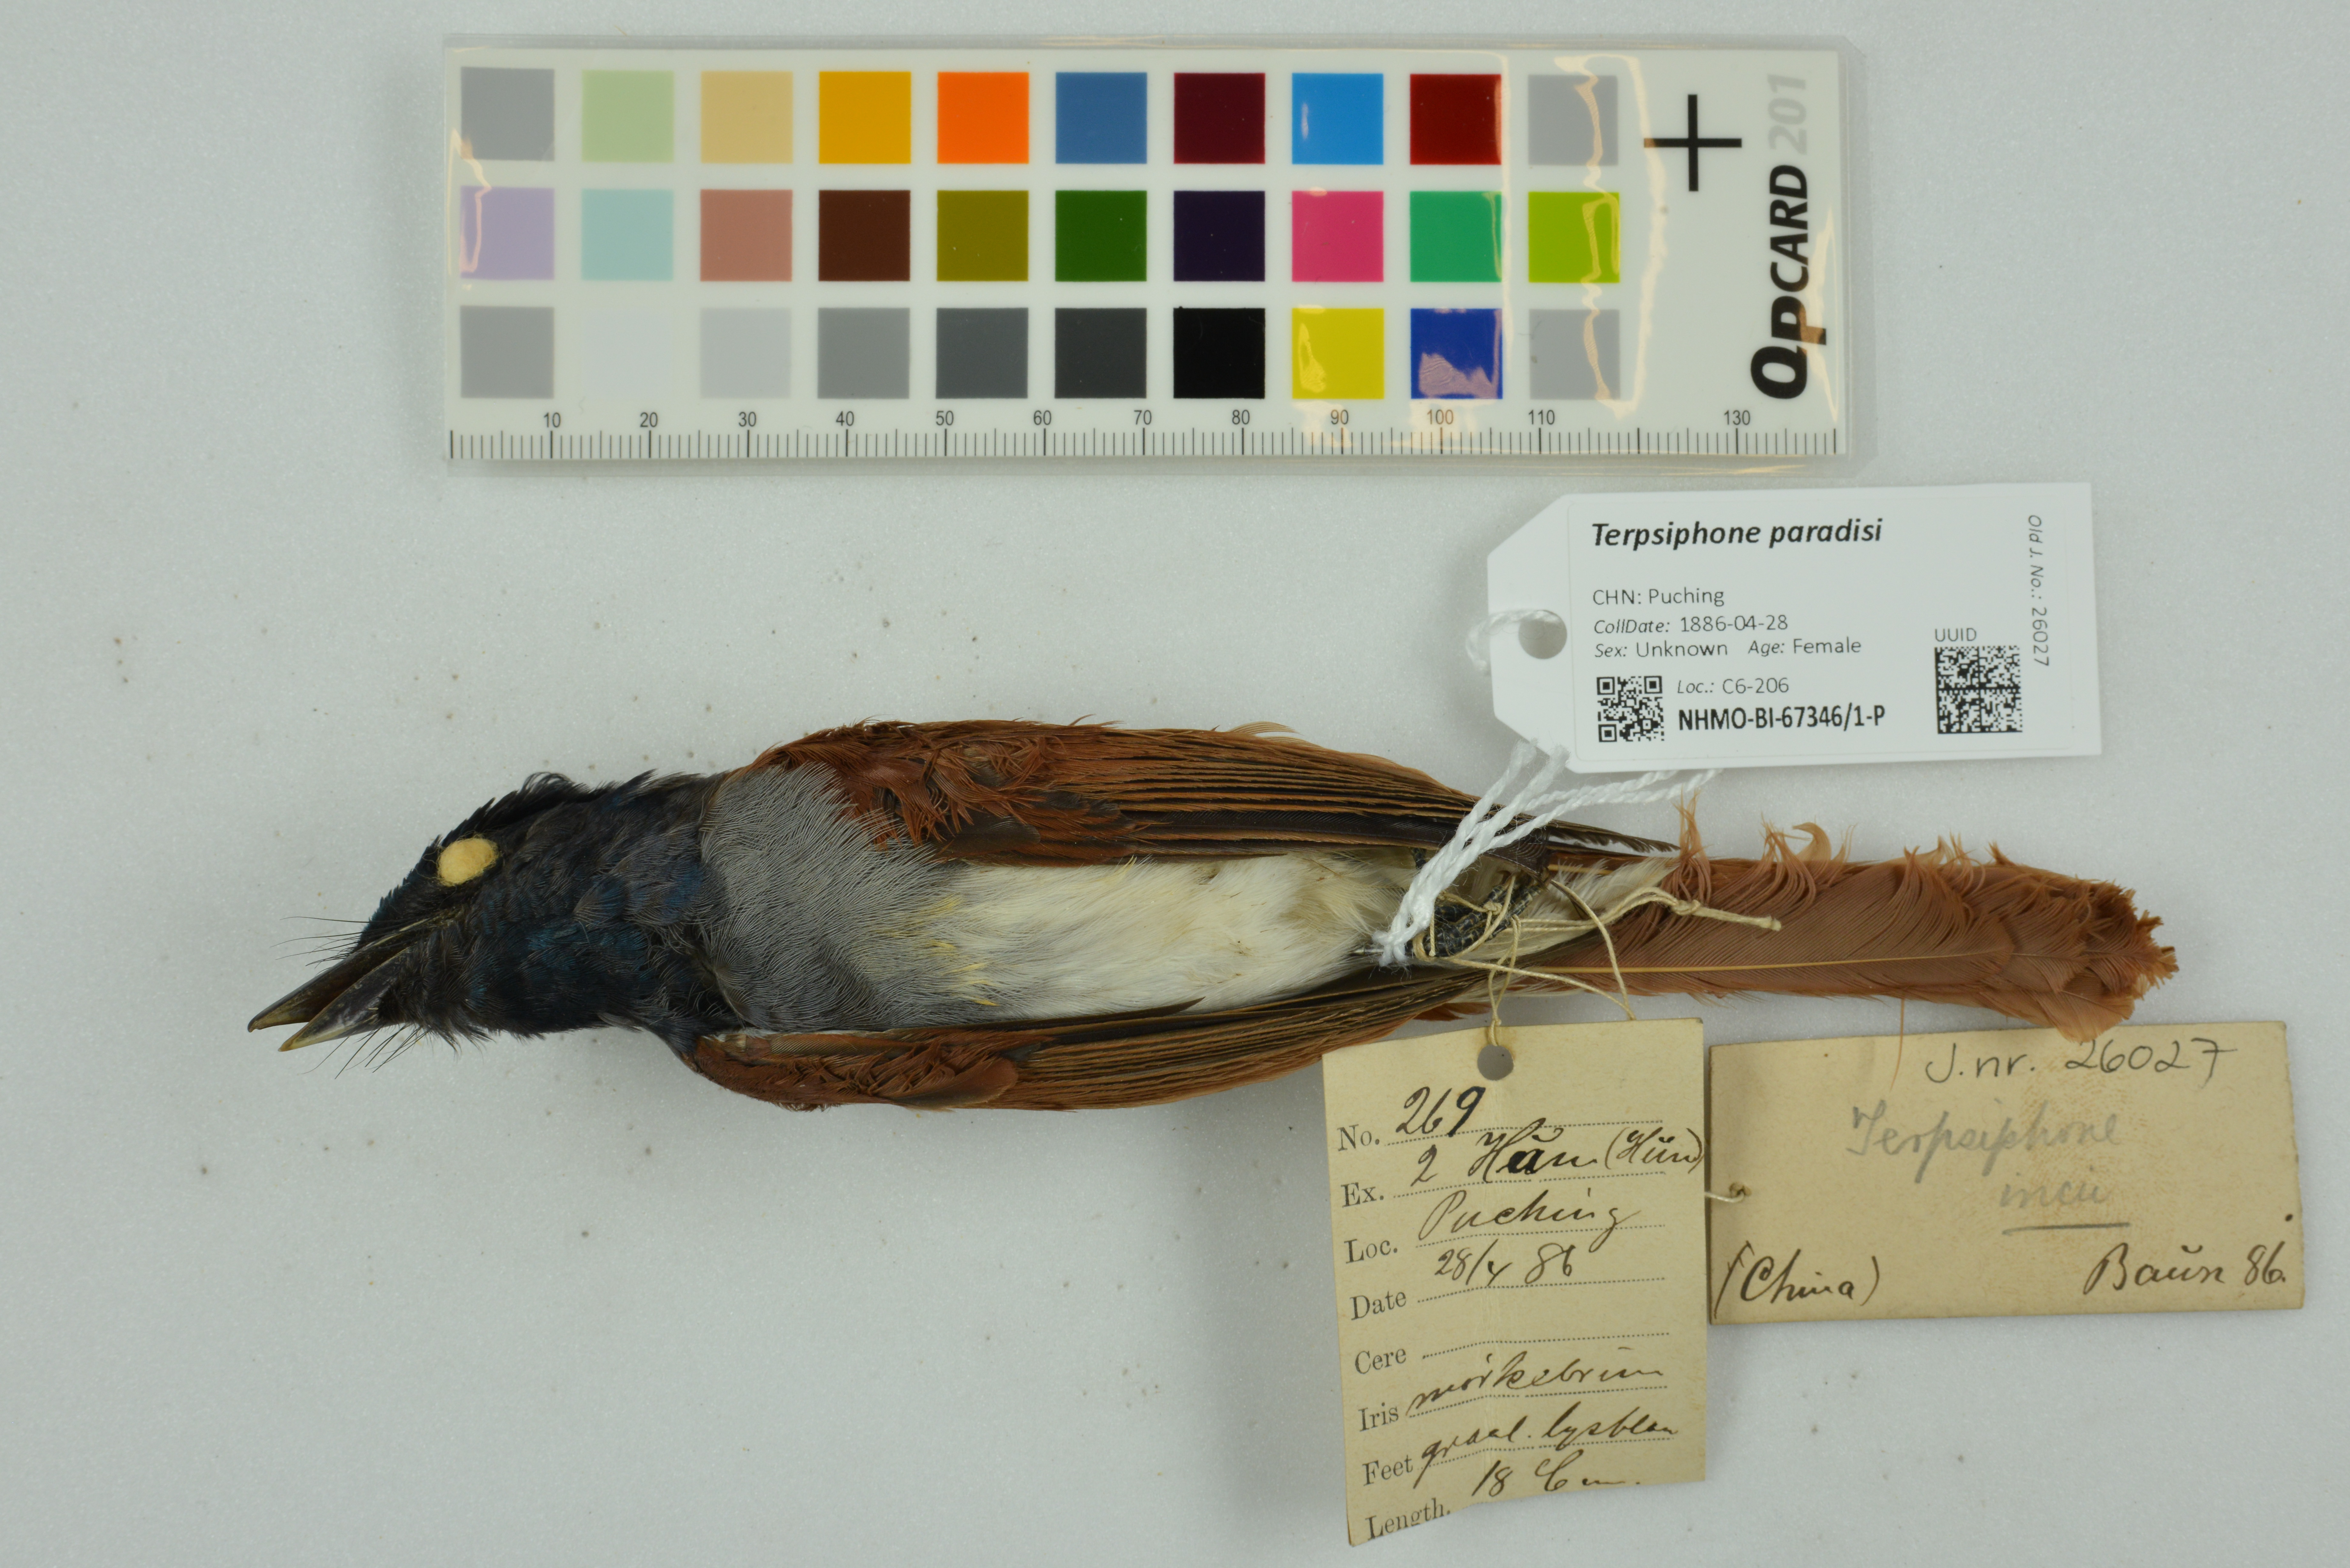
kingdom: Animalia
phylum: Chordata
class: Aves
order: Passeriformes
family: Monarchidae
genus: Terpsiphone
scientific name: Terpsiphone paradisi
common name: Indian paradise flycatcher
